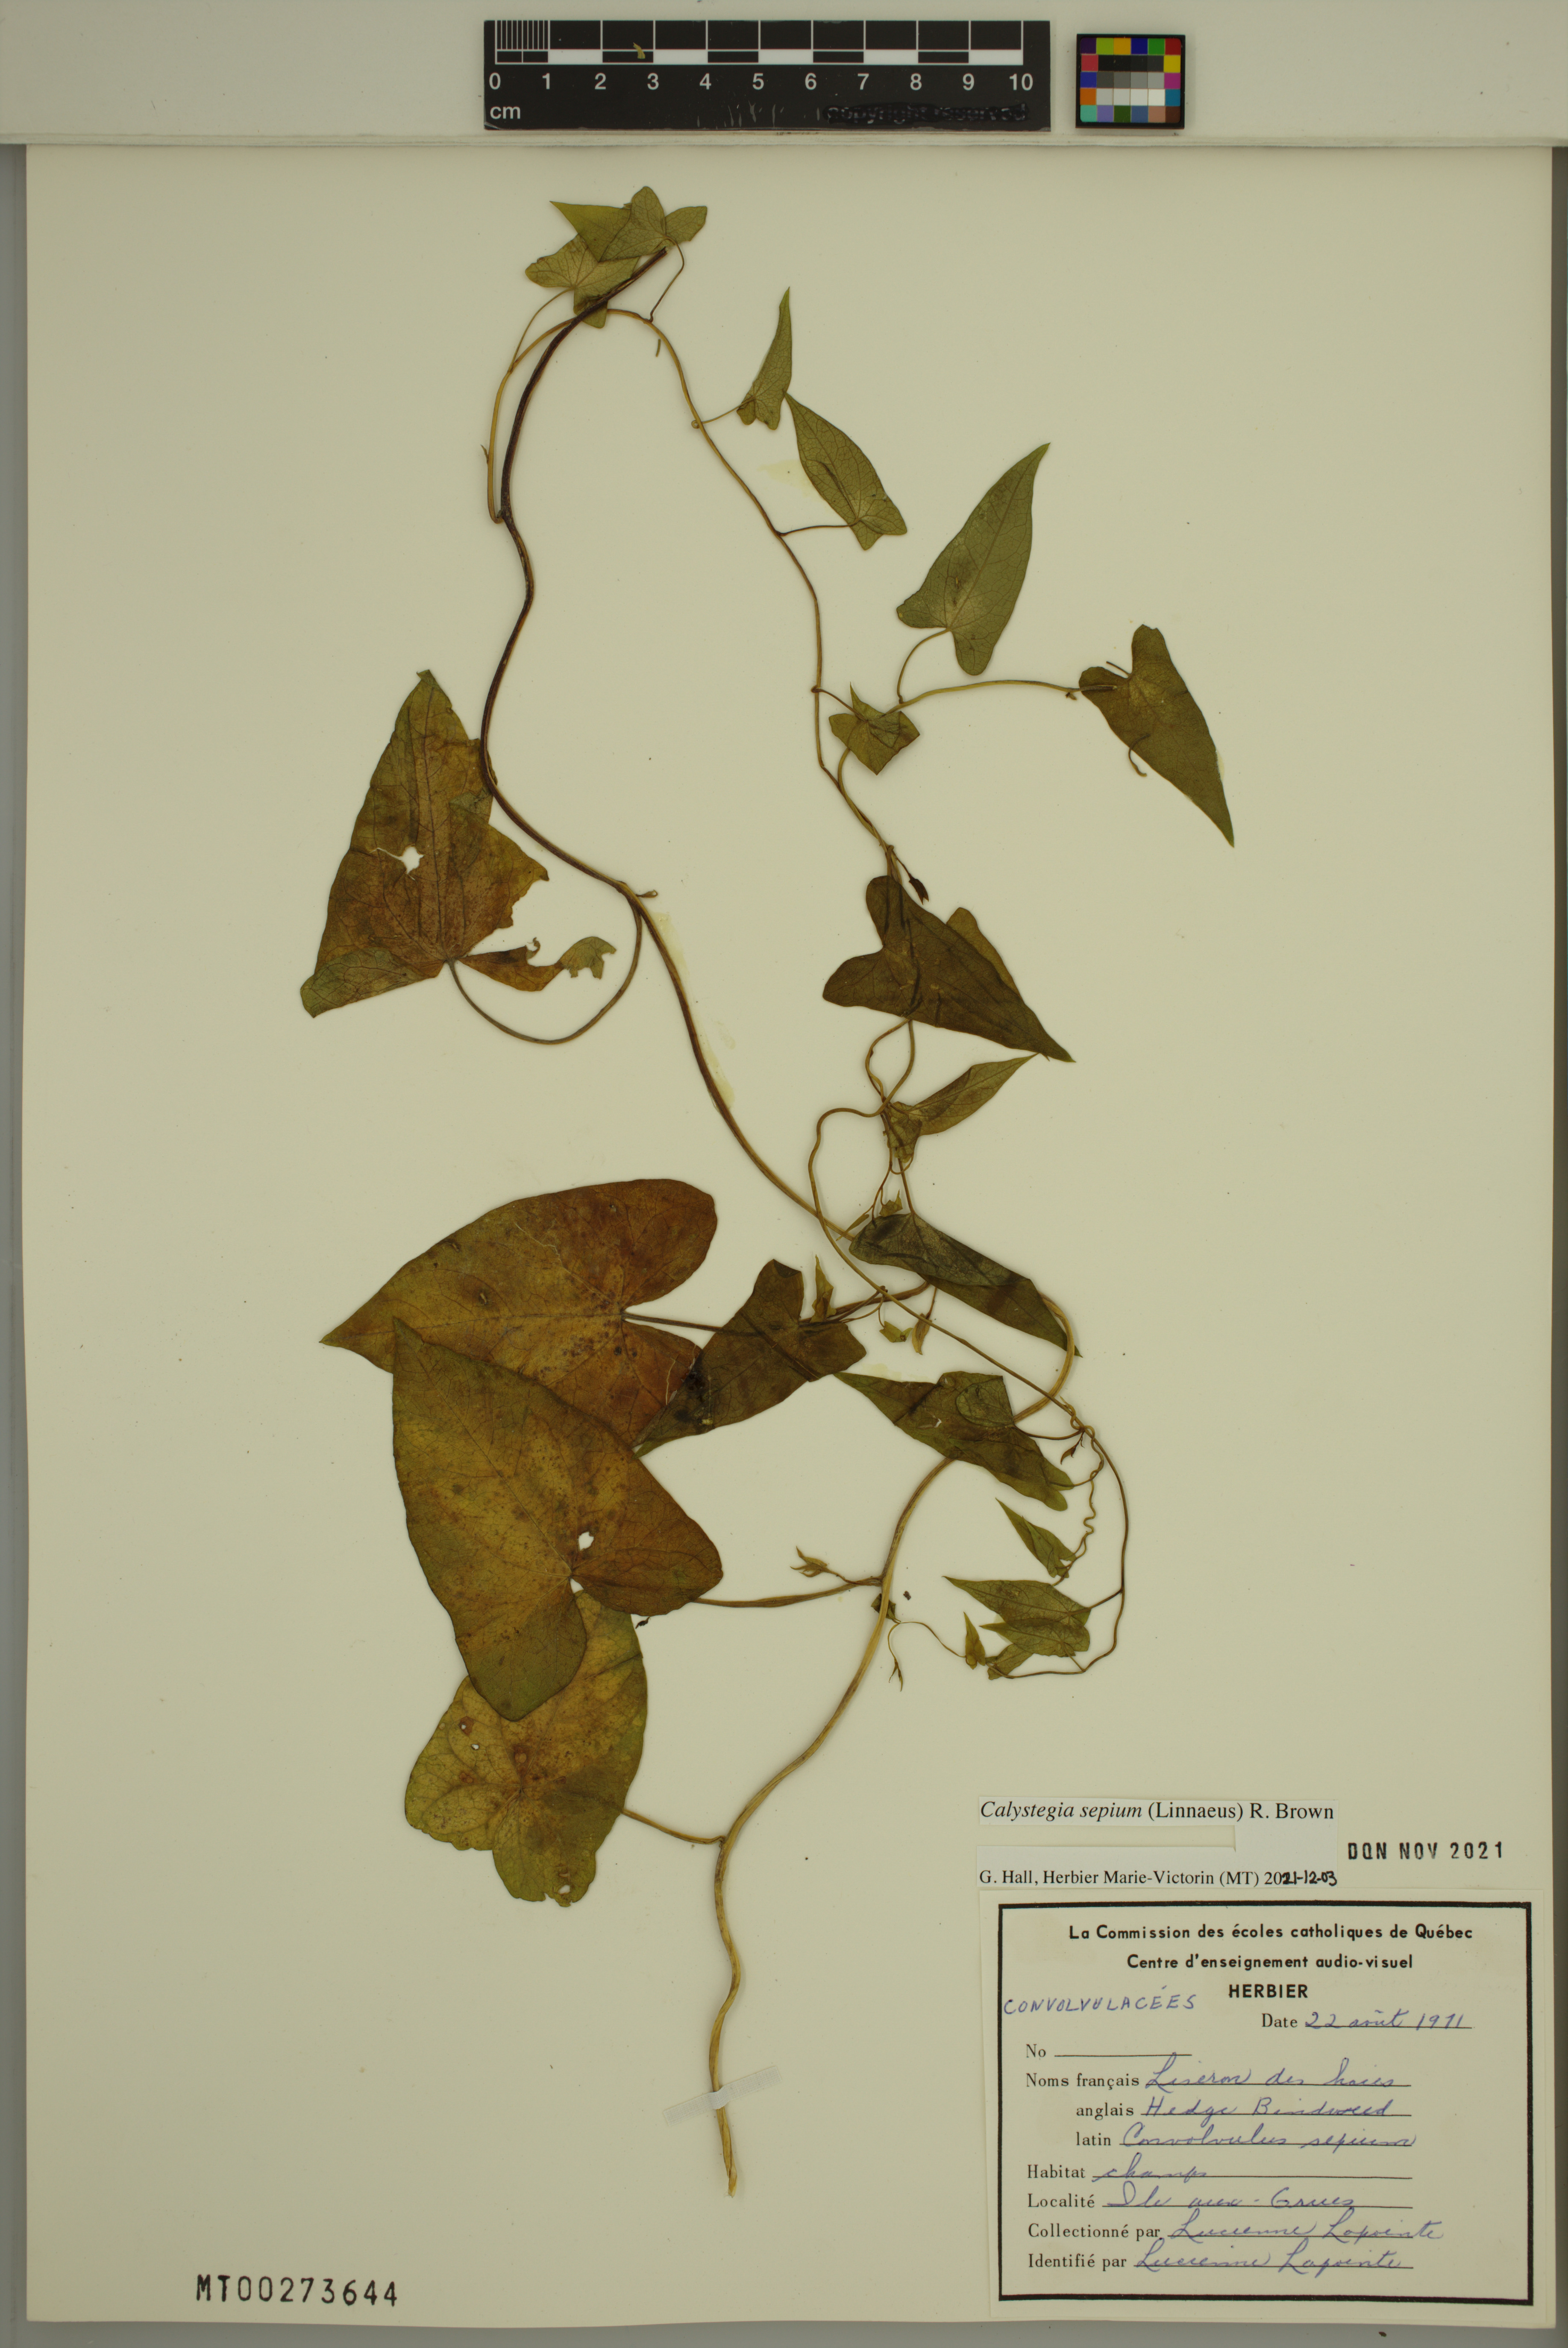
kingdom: Plantae
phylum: Tracheophyta
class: Magnoliopsida
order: Solanales
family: Convolvulaceae
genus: Calystegia
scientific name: Calystegia sepium
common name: Hedge bindweed
